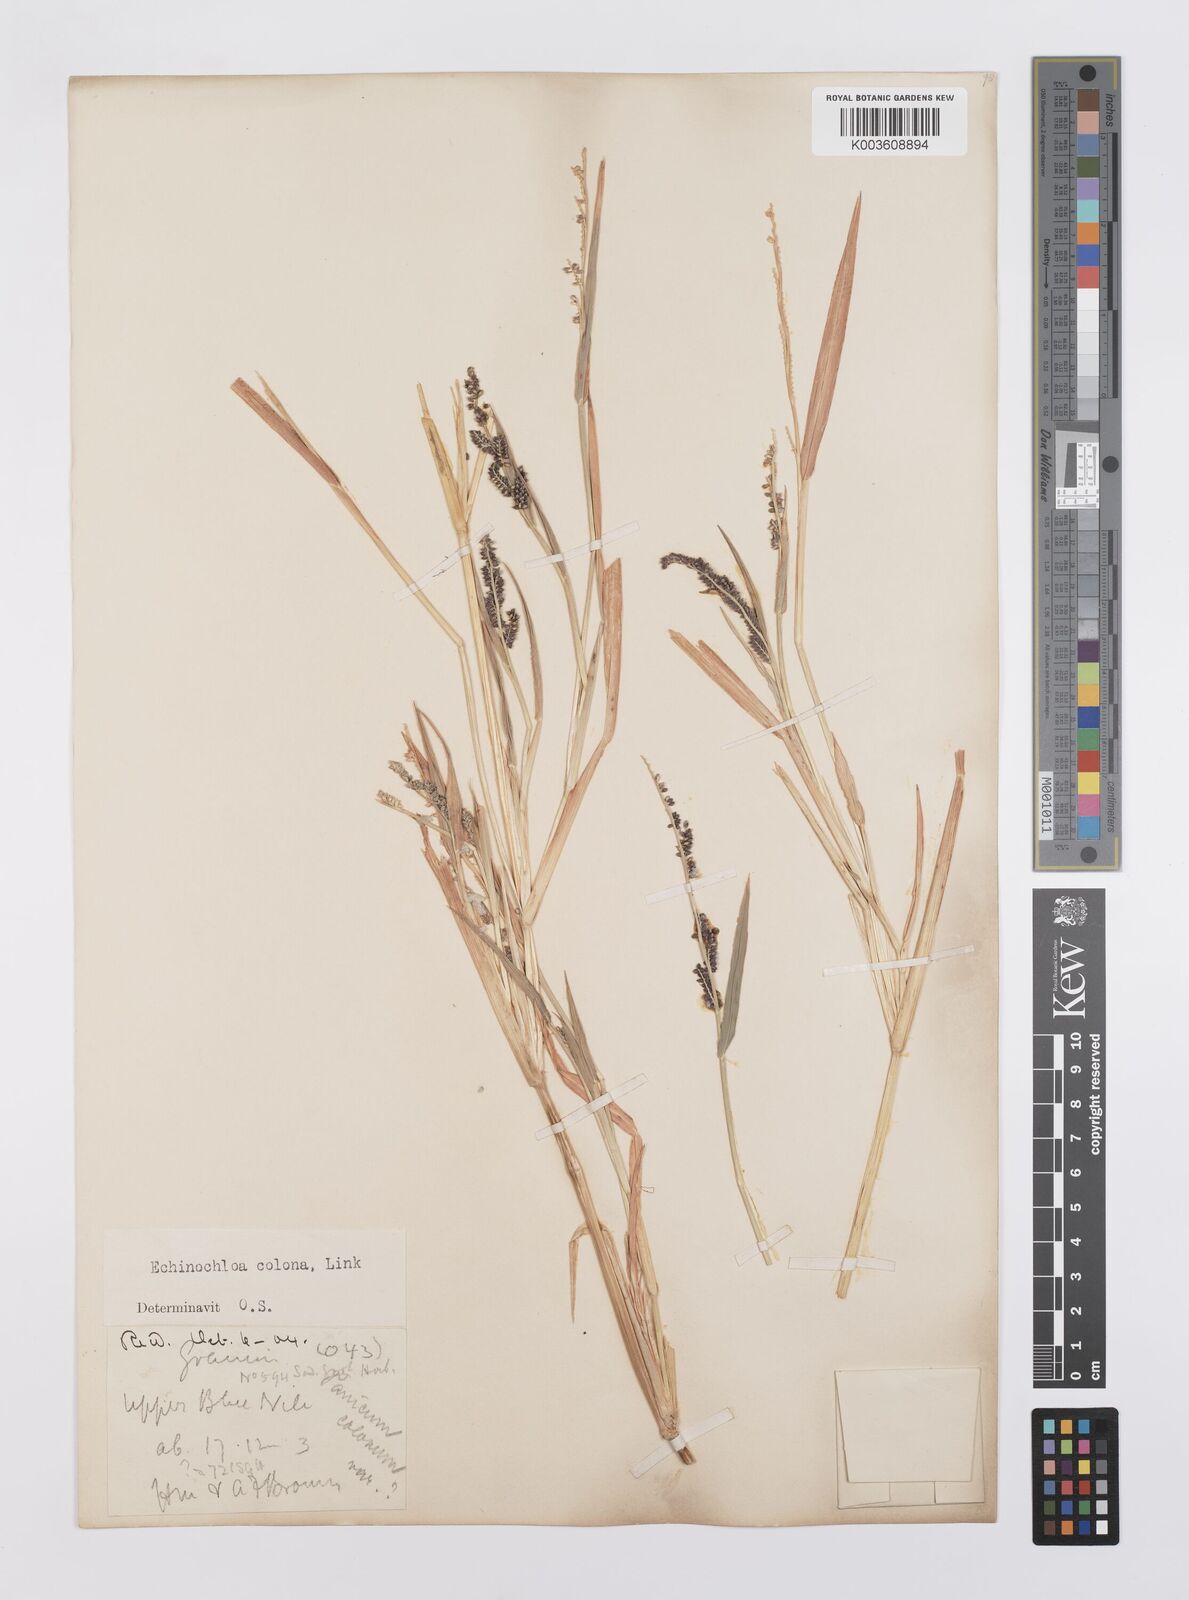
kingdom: Plantae
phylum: Tracheophyta
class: Liliopsida
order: Poales
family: Poaceae
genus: Echinochloa
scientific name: Echinochloa colonum
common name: Jungle rice
